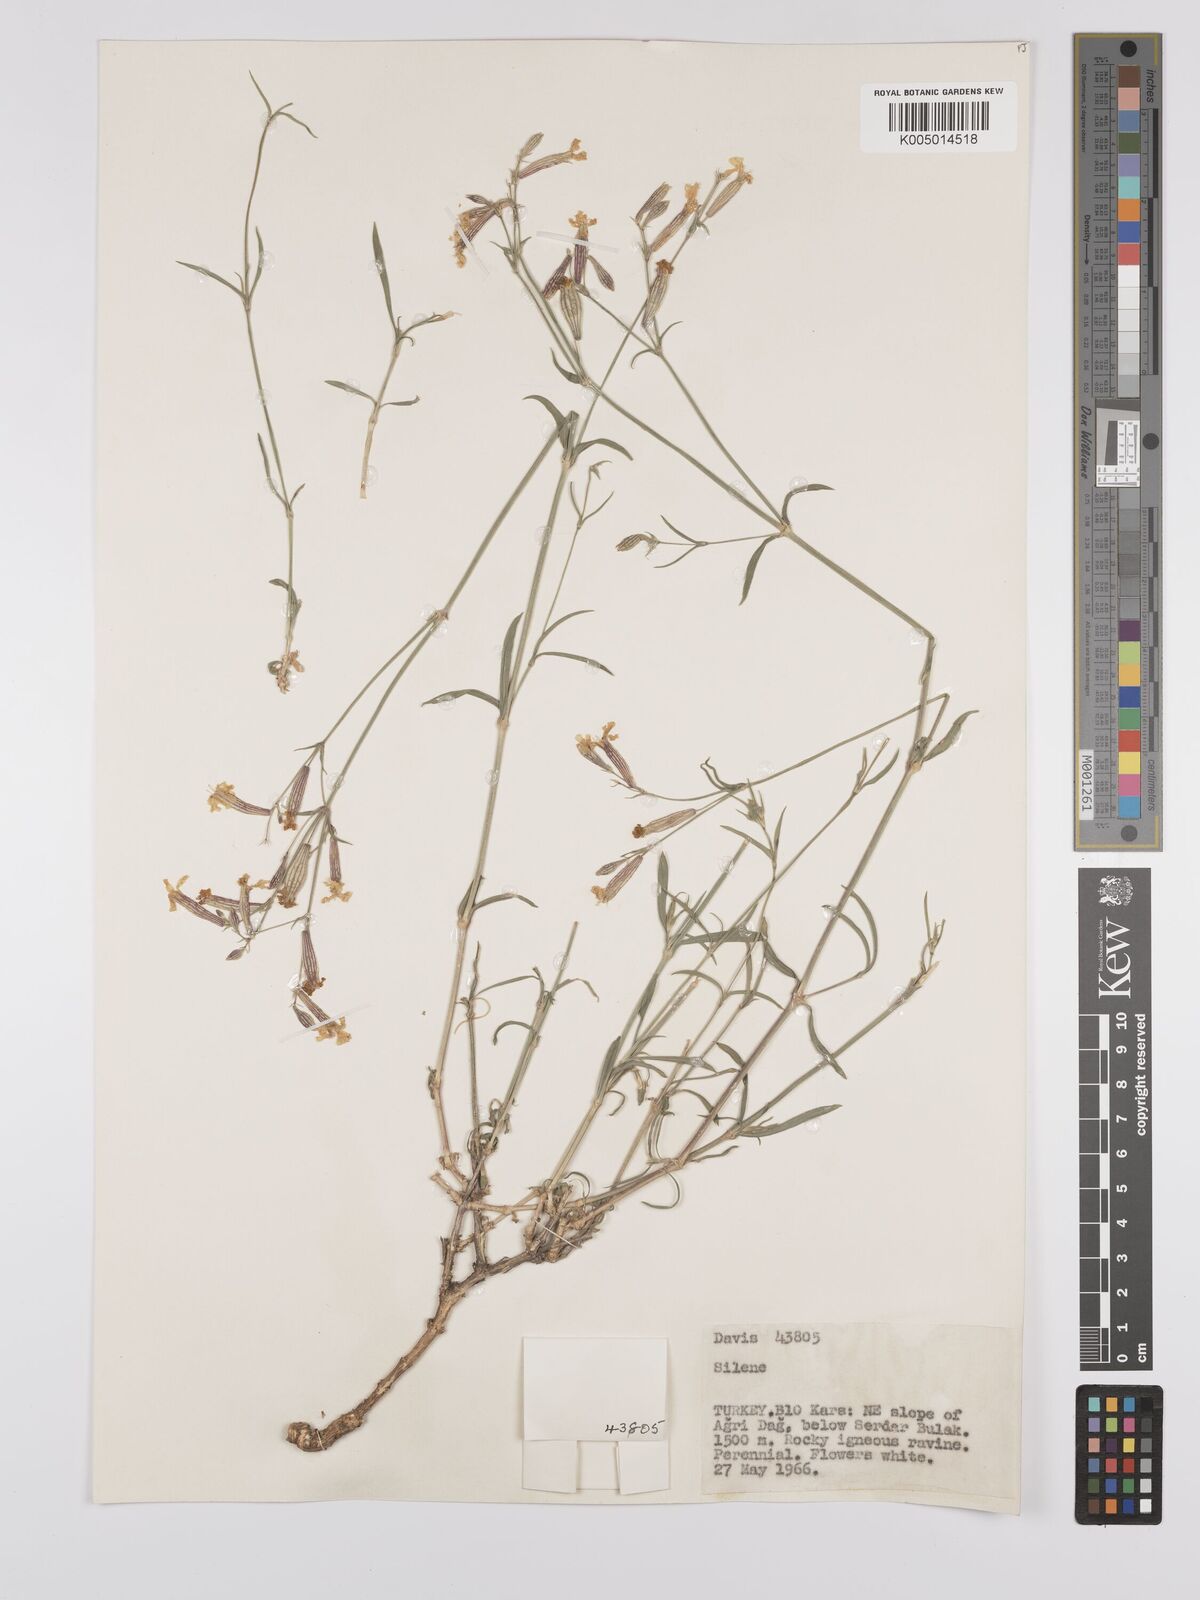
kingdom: Plantae
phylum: Tracheophyta
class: Magnoliopsida
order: Caryophyllales
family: Caryophyllaceae
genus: Silene
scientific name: Silene
